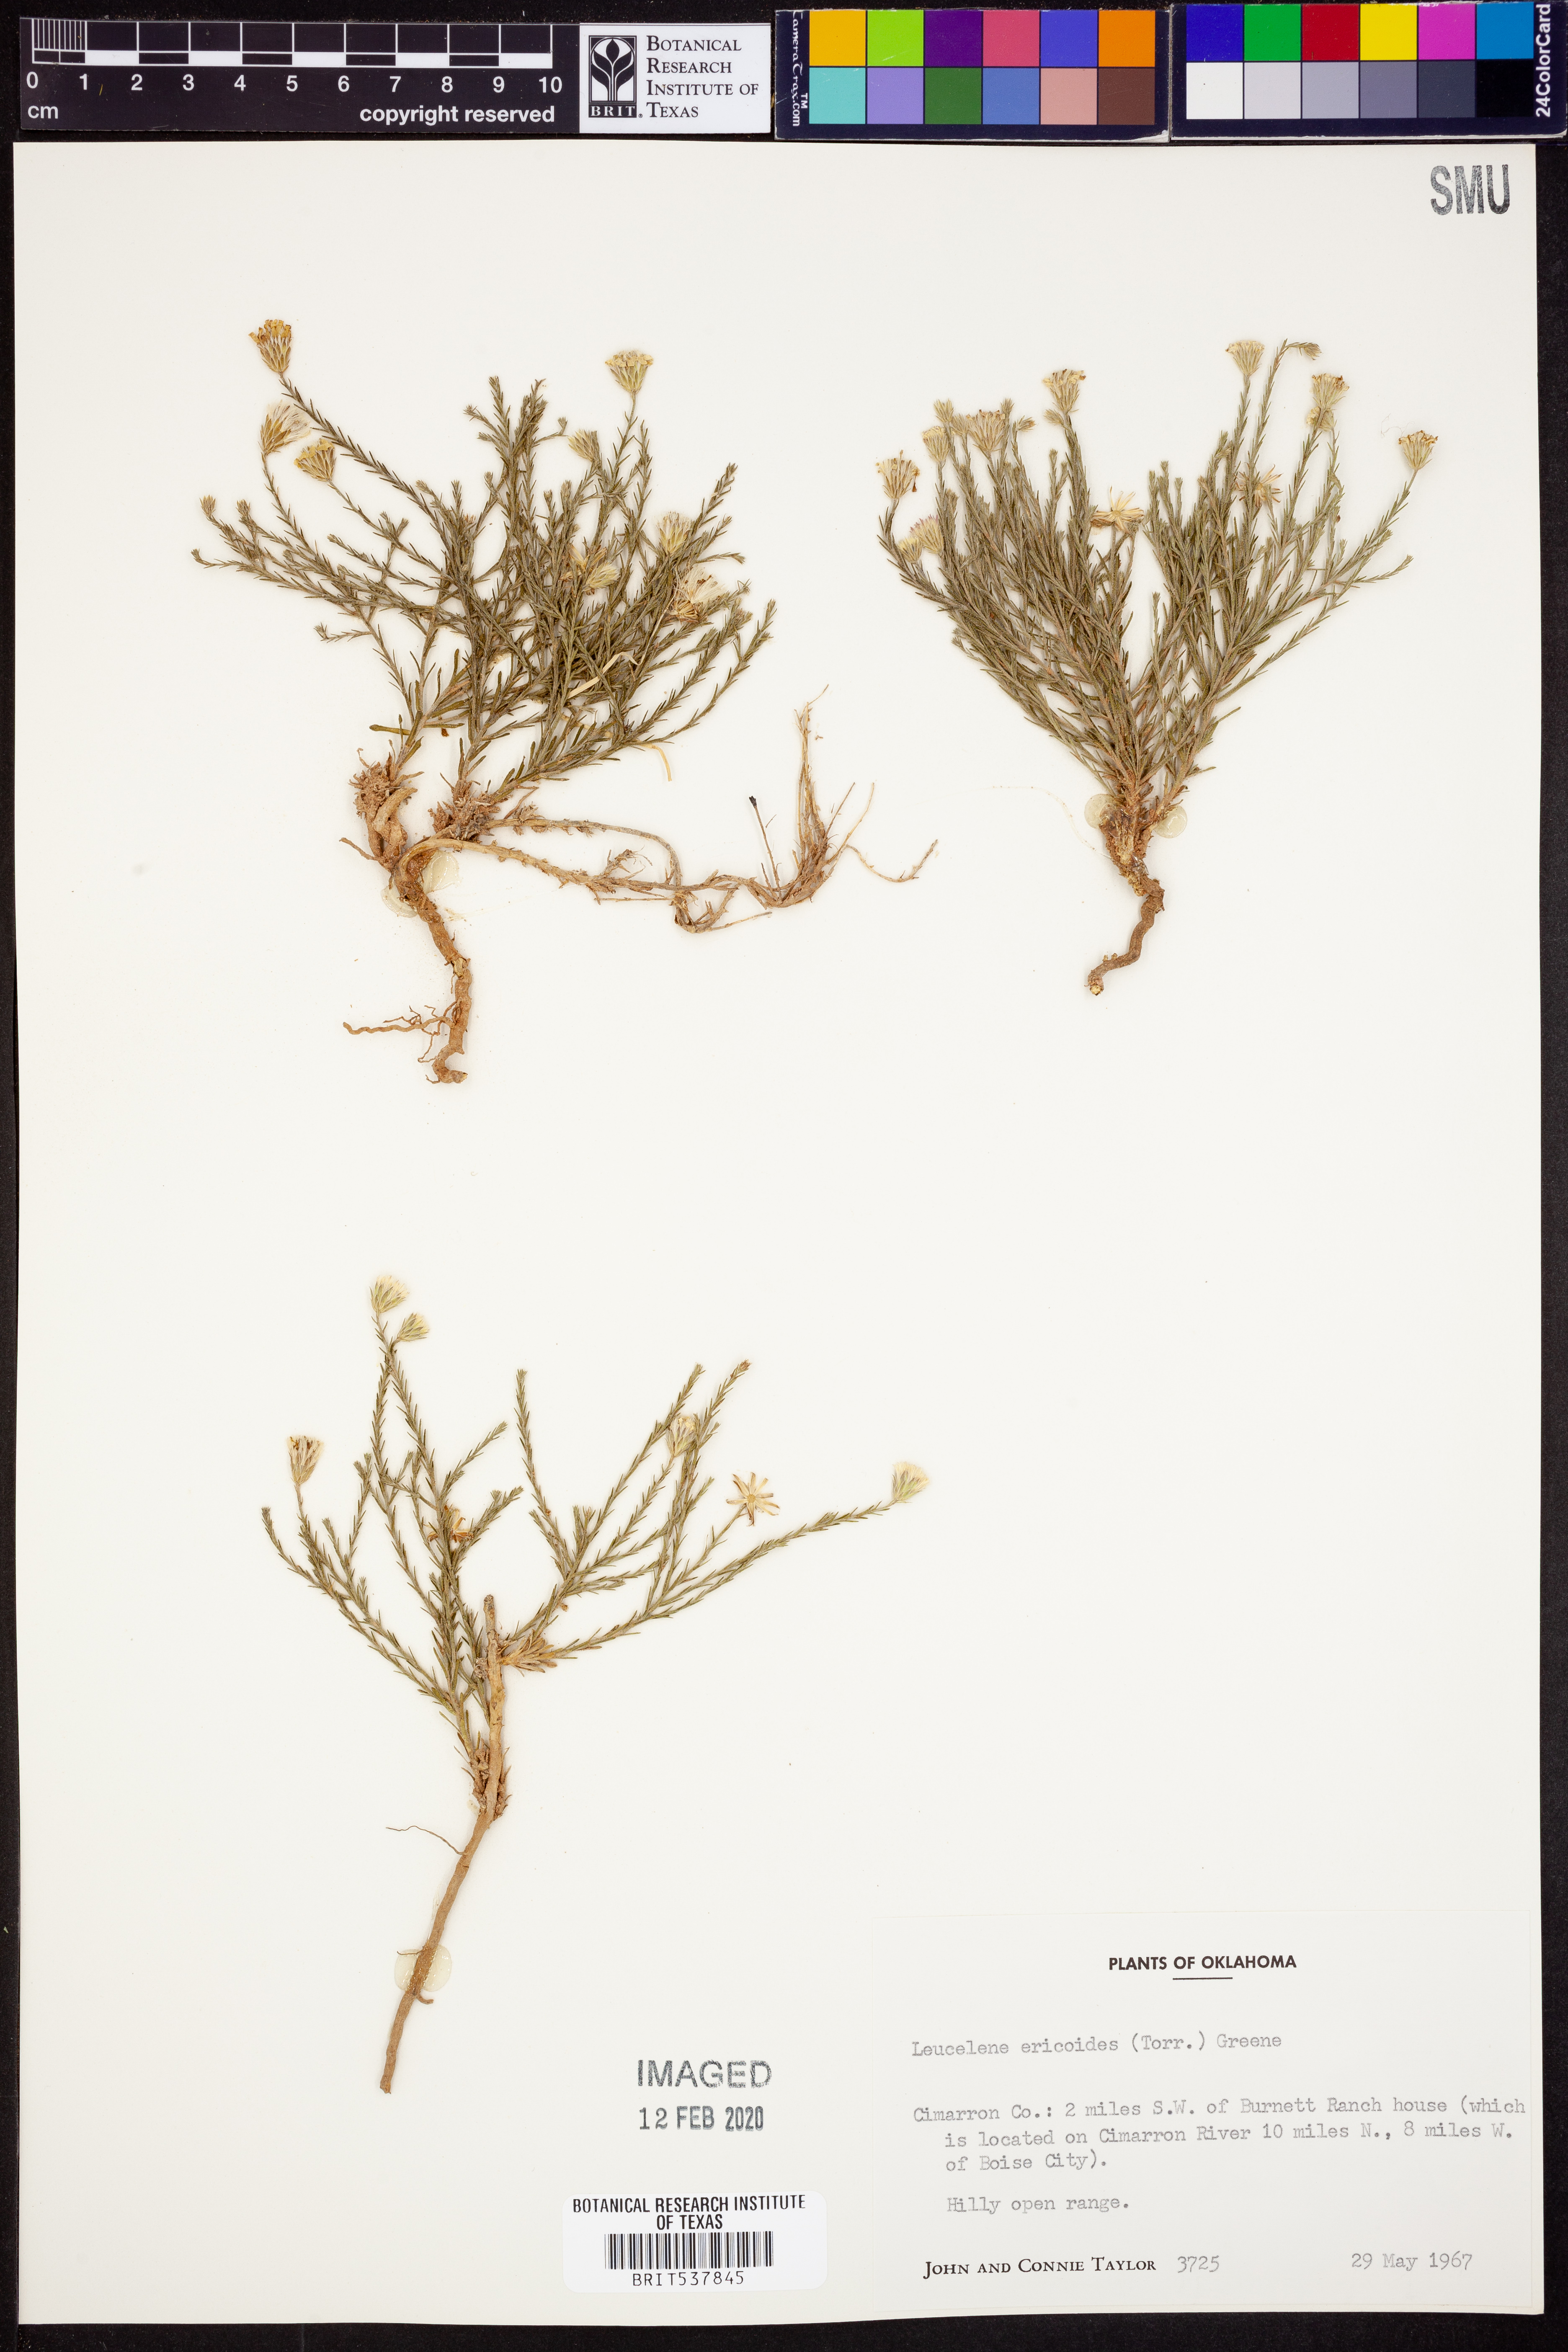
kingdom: Plantae
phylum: Tracheophyta
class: Magnoliopsida
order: Asterales
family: Asteraceae
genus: Chaetopappa
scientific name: Chaetopappa ericoides
